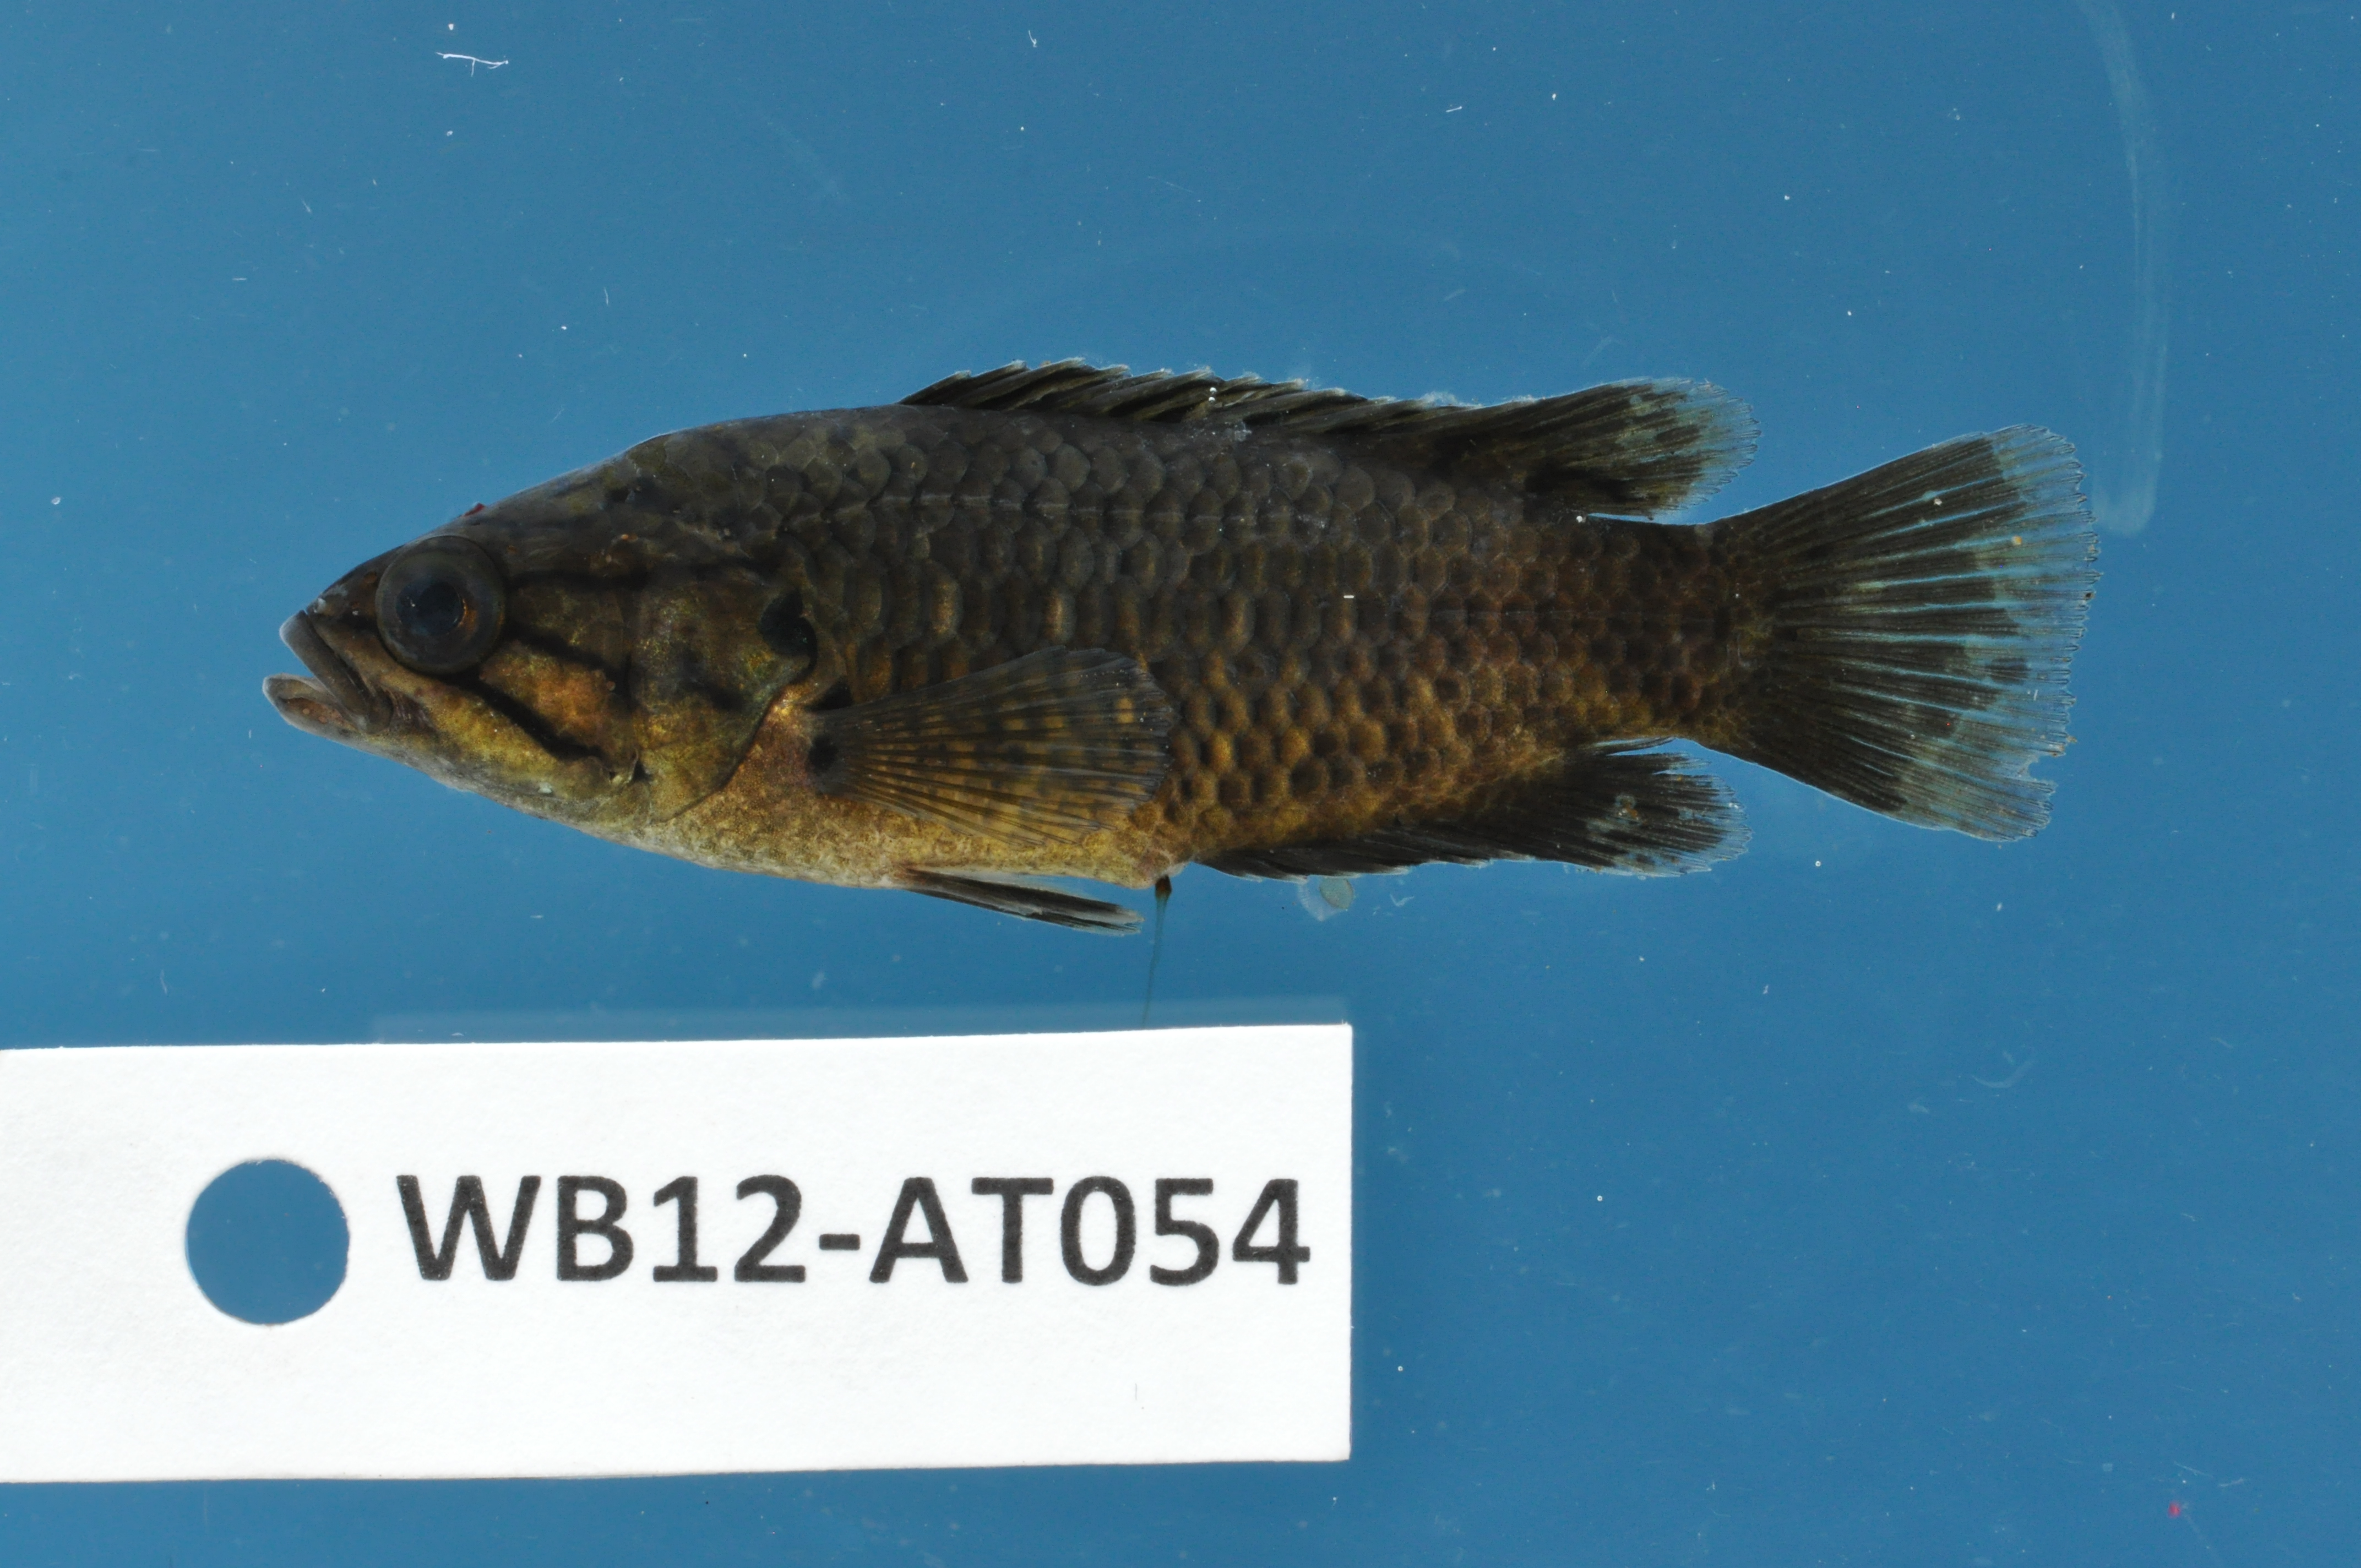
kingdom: Animalia
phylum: Chordata
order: Perciformes
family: Anabantidae
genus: Sandelia
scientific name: Sandelia capensis
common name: Cape kurper
